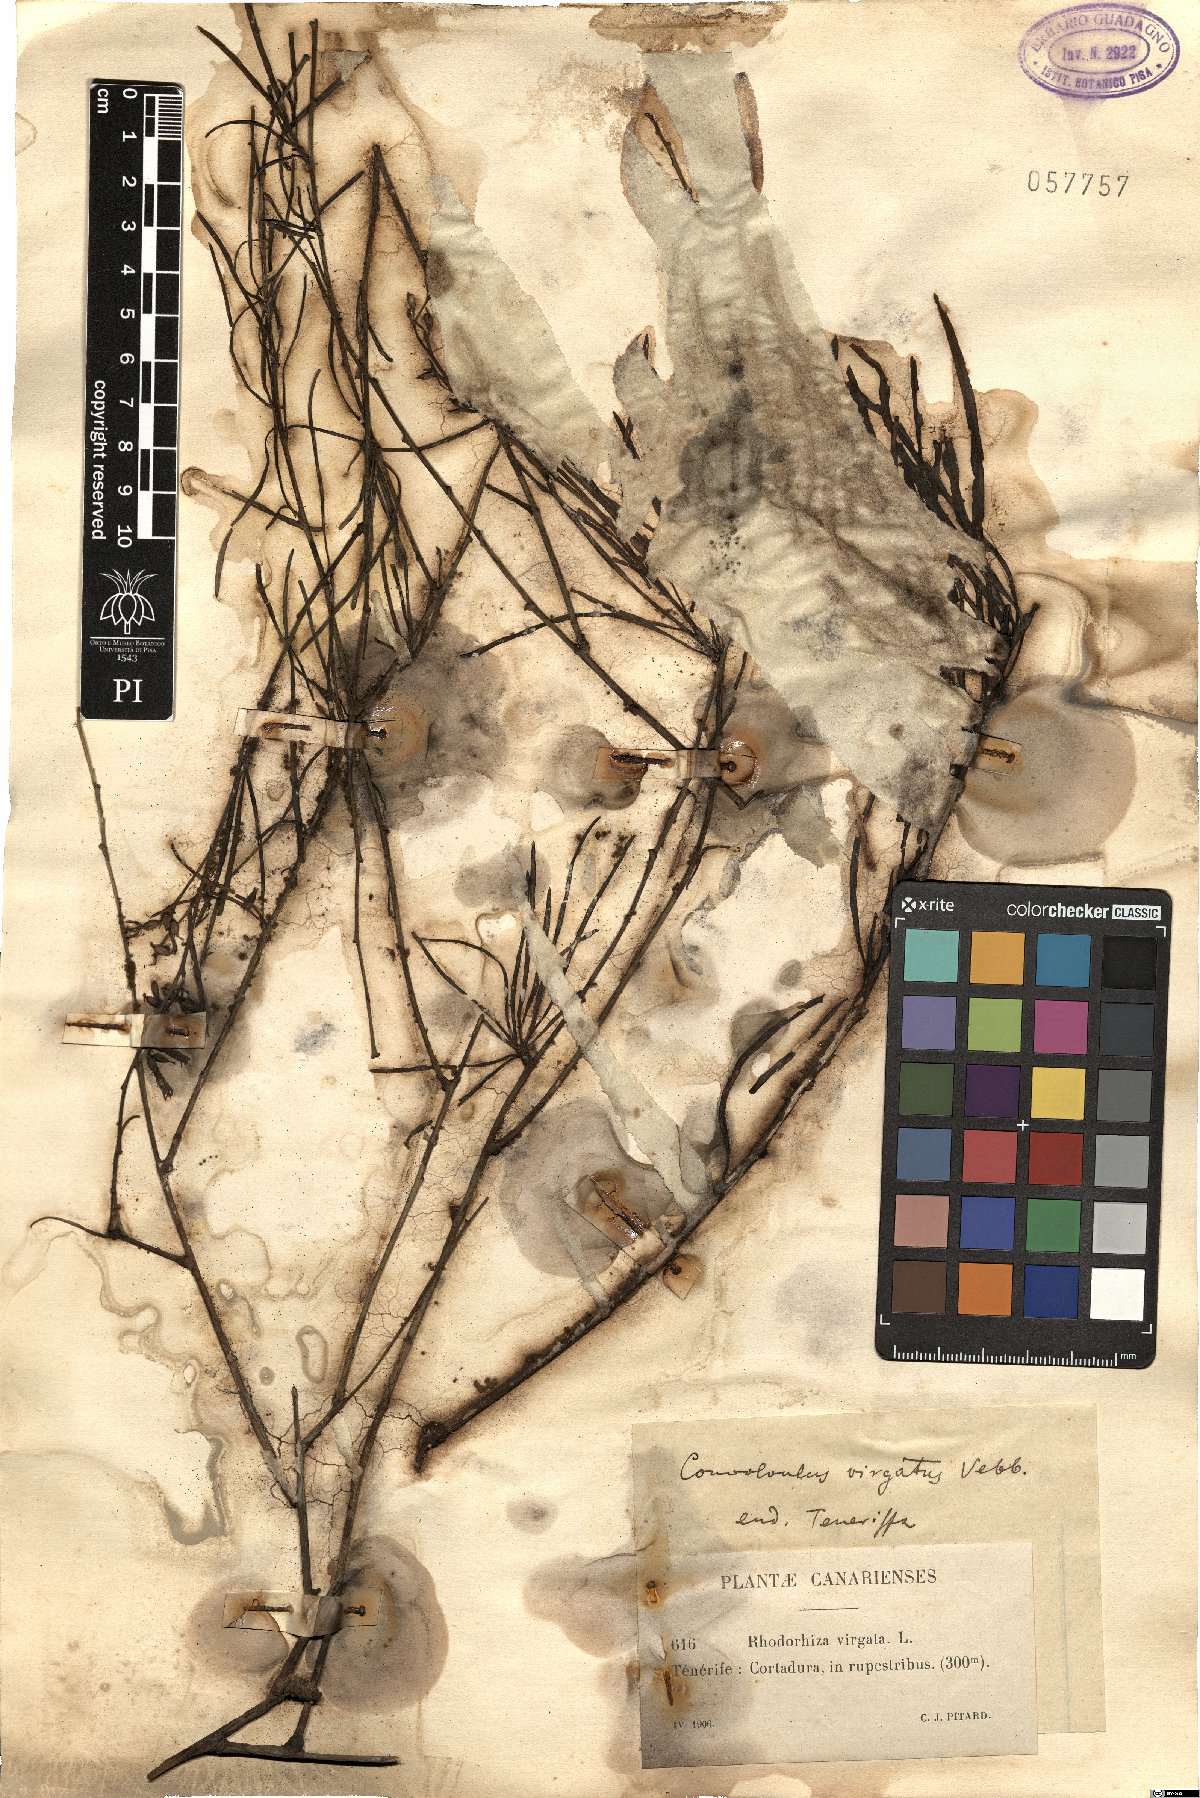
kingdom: Plantae
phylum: Tracheophyta
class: Magnoliopsida
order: Solanales
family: Convolvulaceae
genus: Convolvulus
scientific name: Convolvulus virgatus
